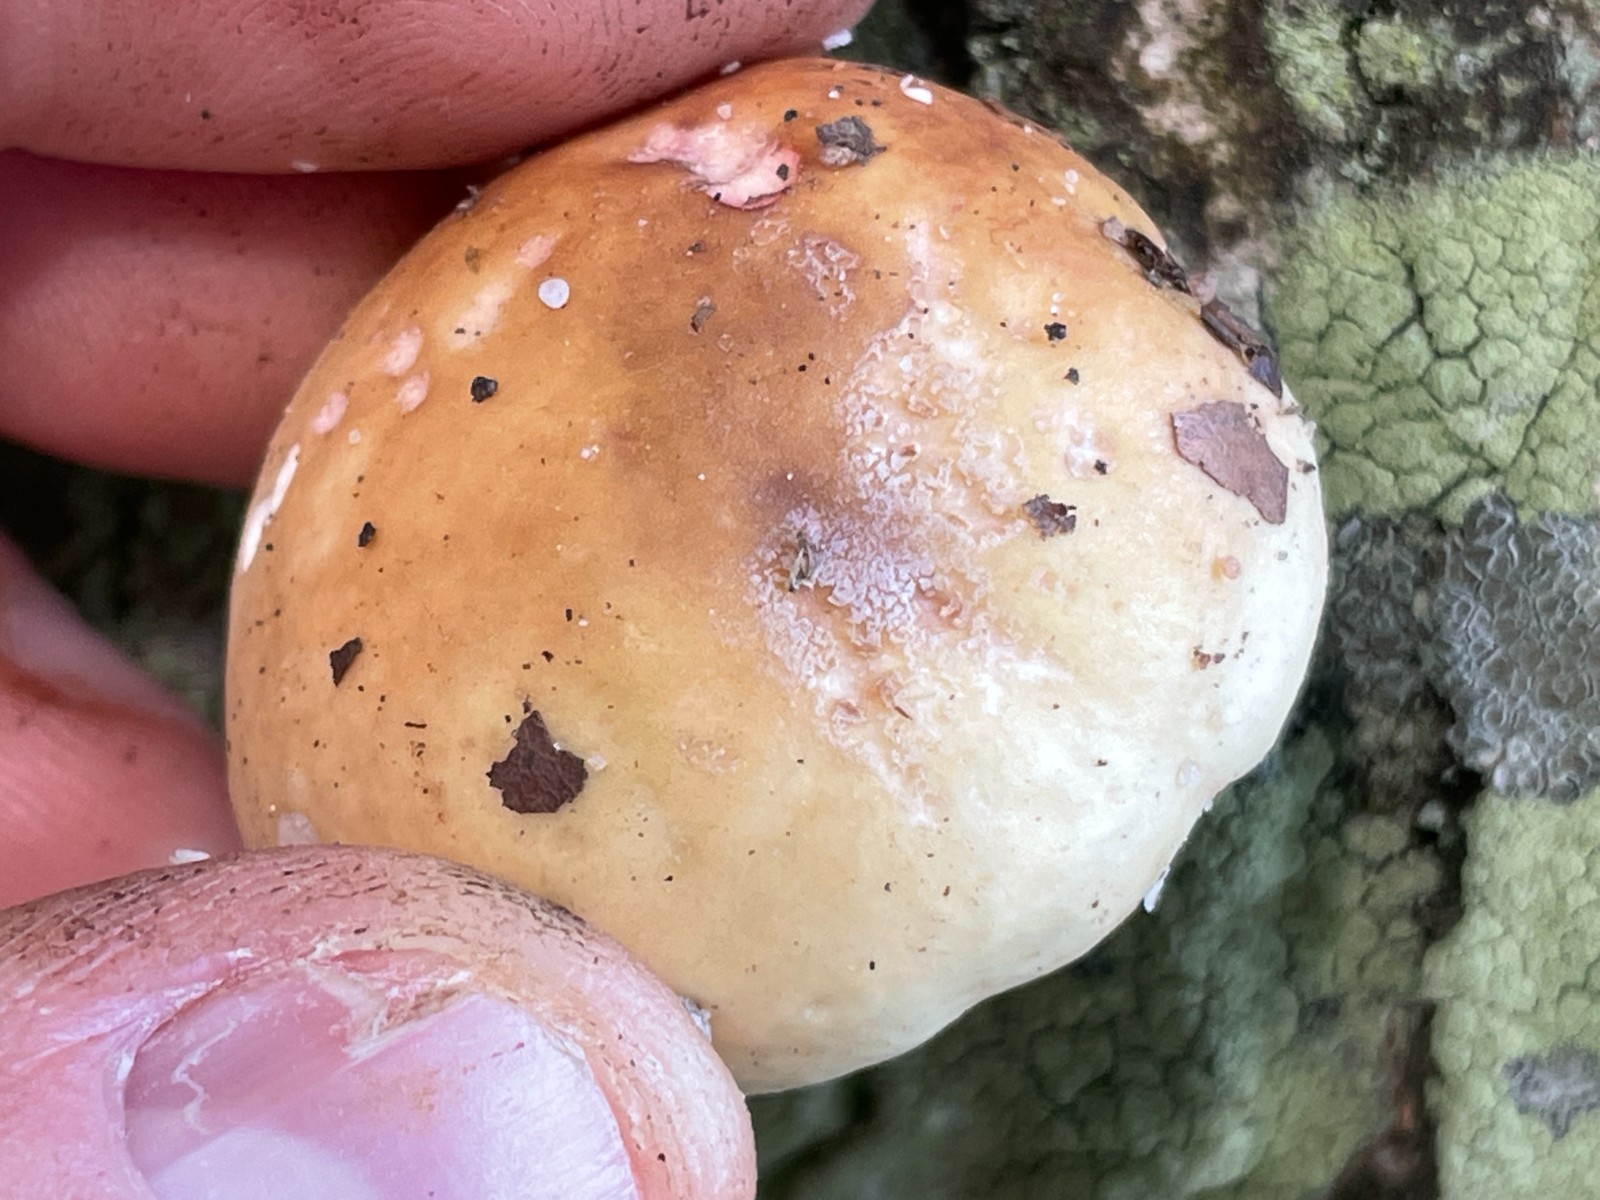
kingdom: Fungi
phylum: Basidiomycota
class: Agaricomycetes
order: Russulales
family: Russulaceae
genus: Russula
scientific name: Russula
